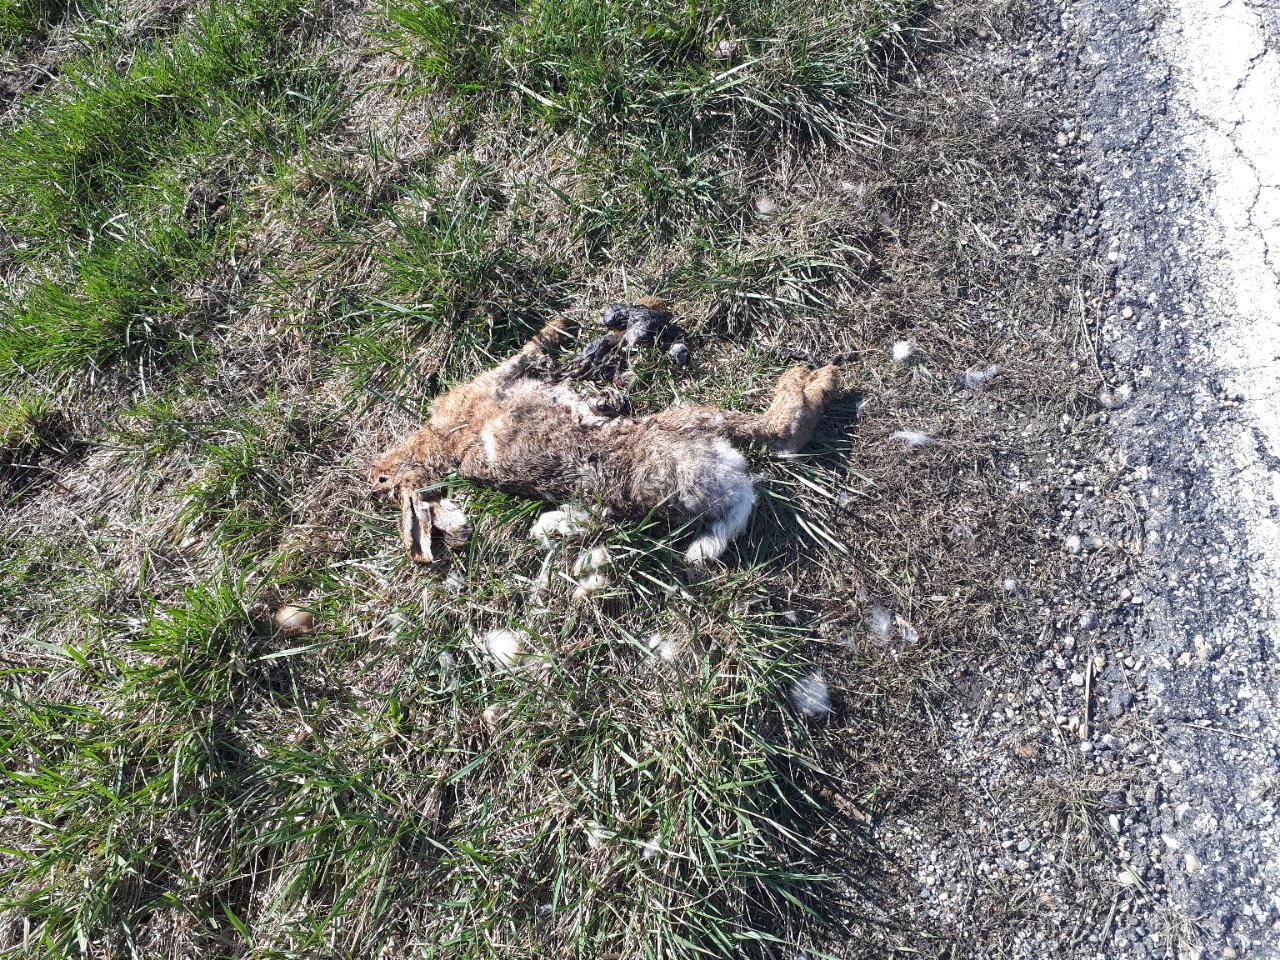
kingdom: Animalia
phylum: Chordata
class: Mammalia
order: Lagomorpha
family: Leporidae
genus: Lepus
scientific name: Lepus europaeus
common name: European hare
